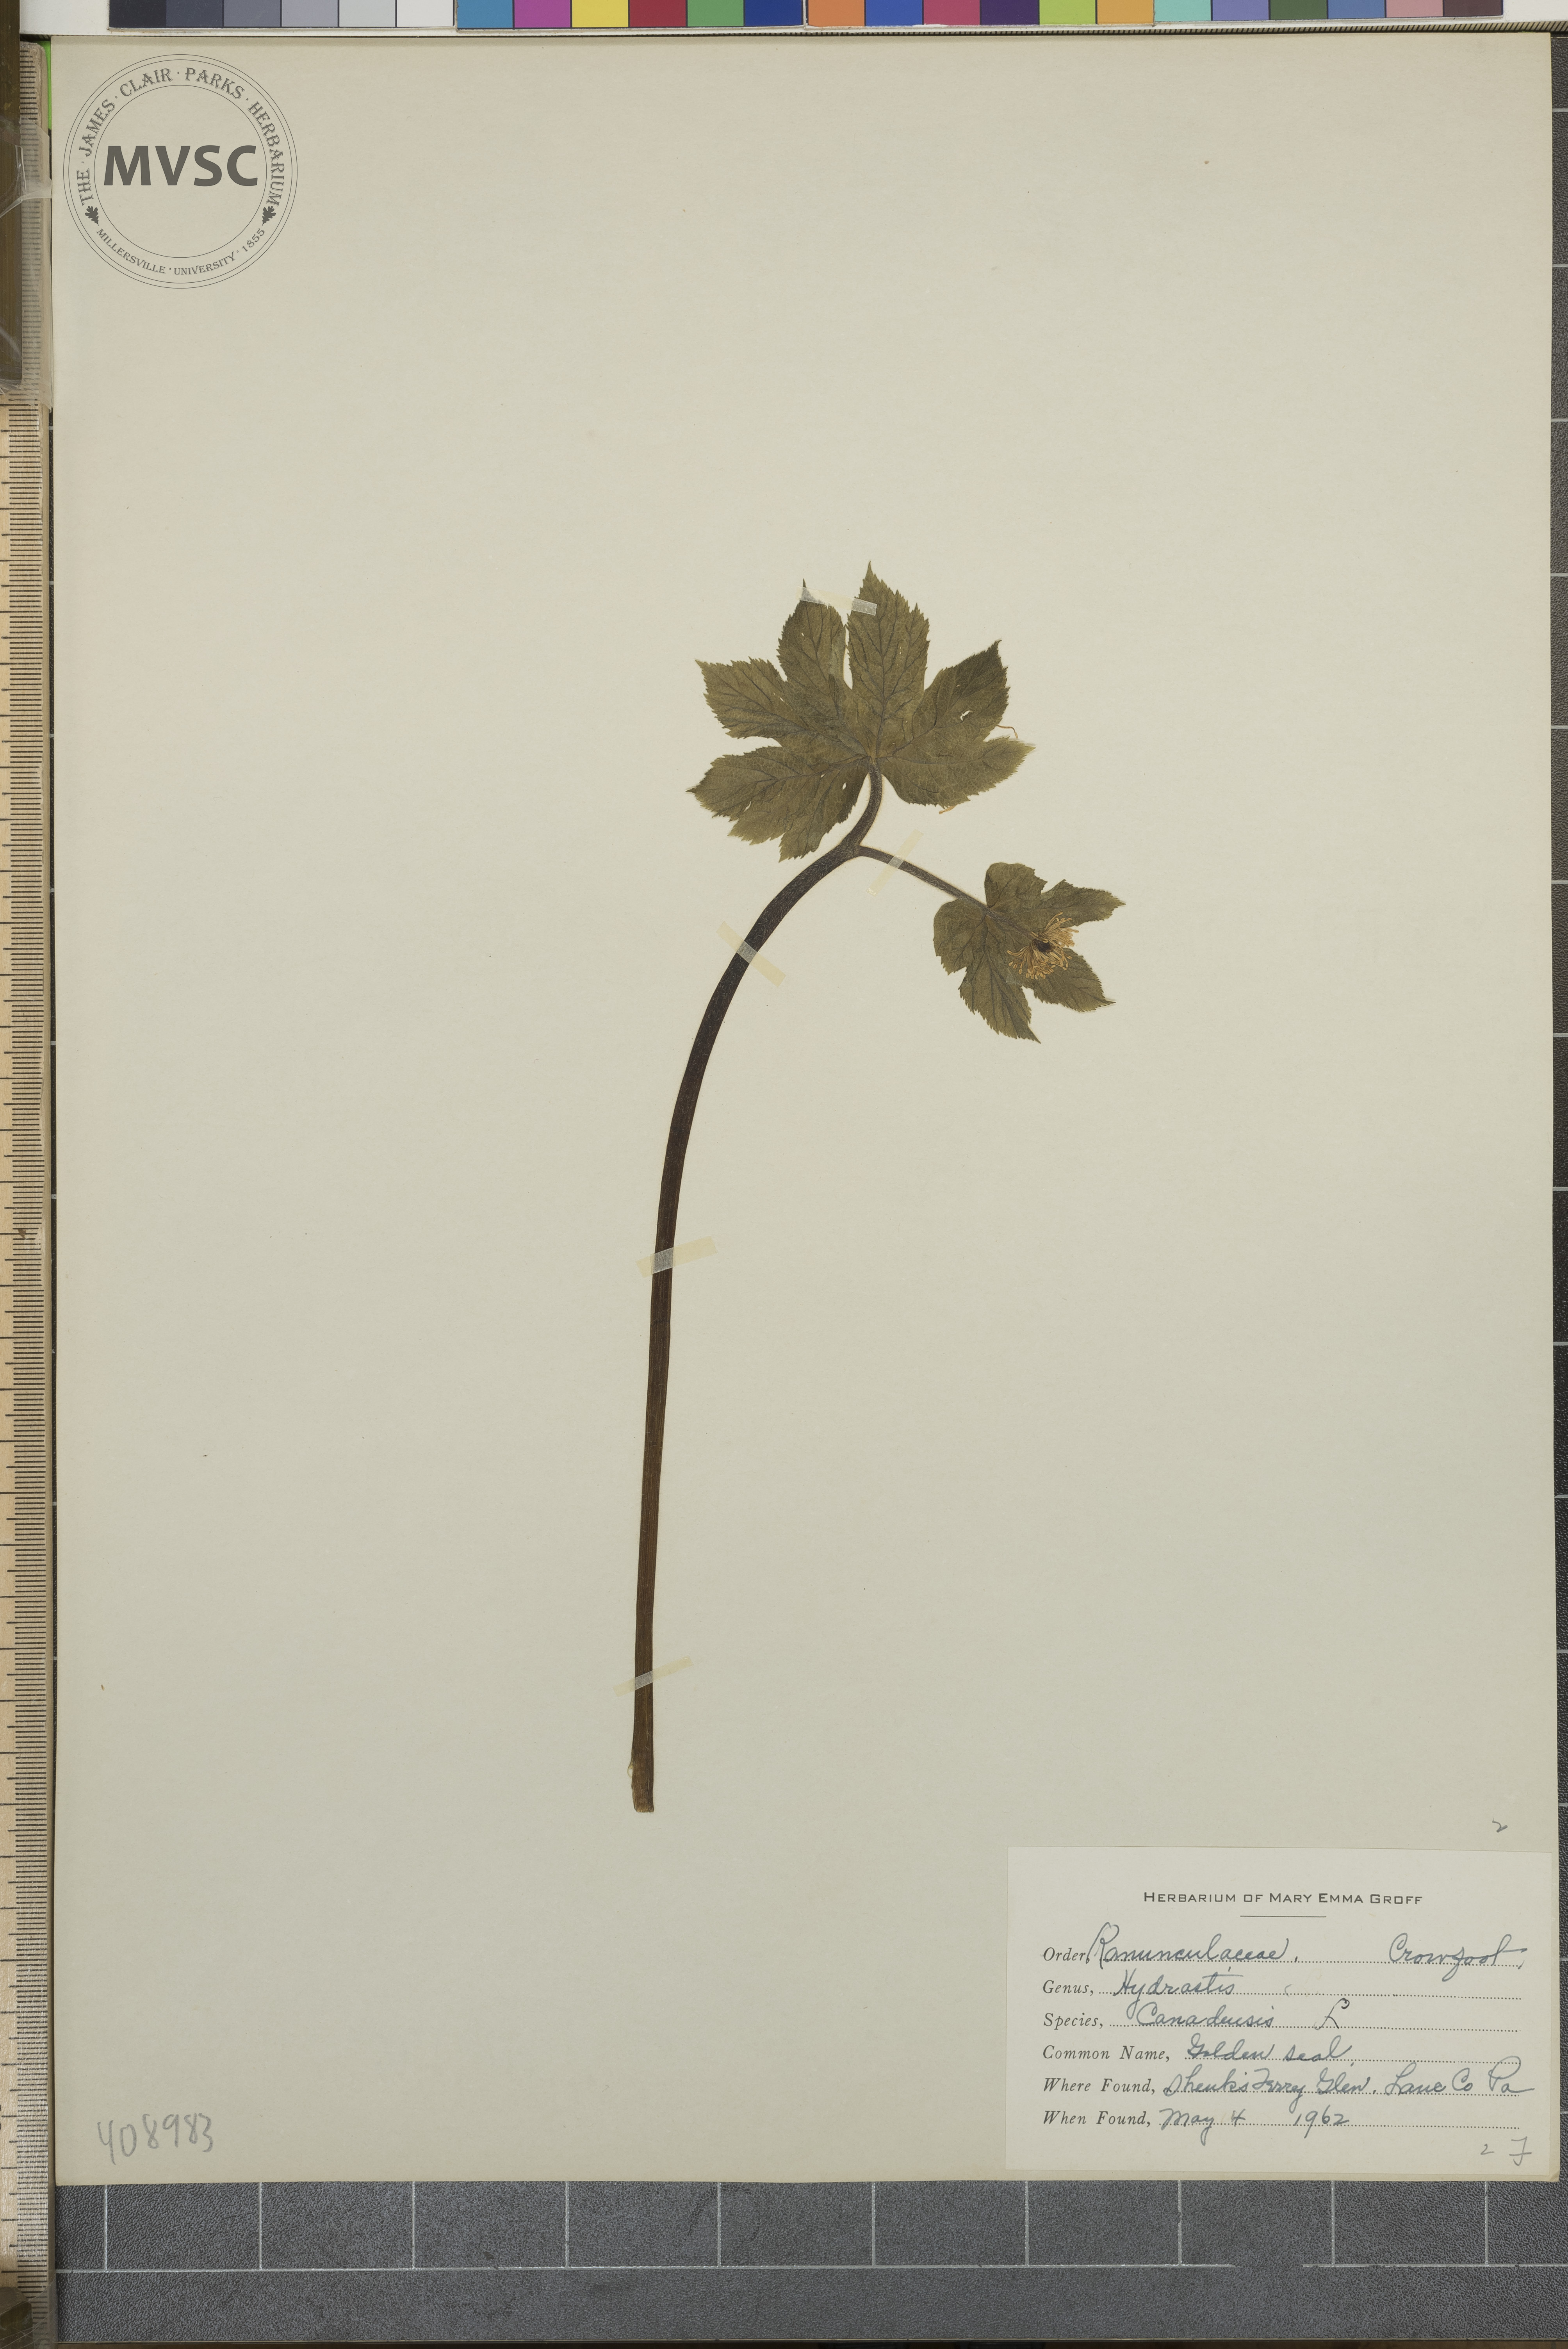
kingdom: Plantae
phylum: Tracheophyta
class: Magnoliopsida
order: Ranunculales
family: Ranunculaceae
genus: Hydrastis
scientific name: Hydrastis canadensis
